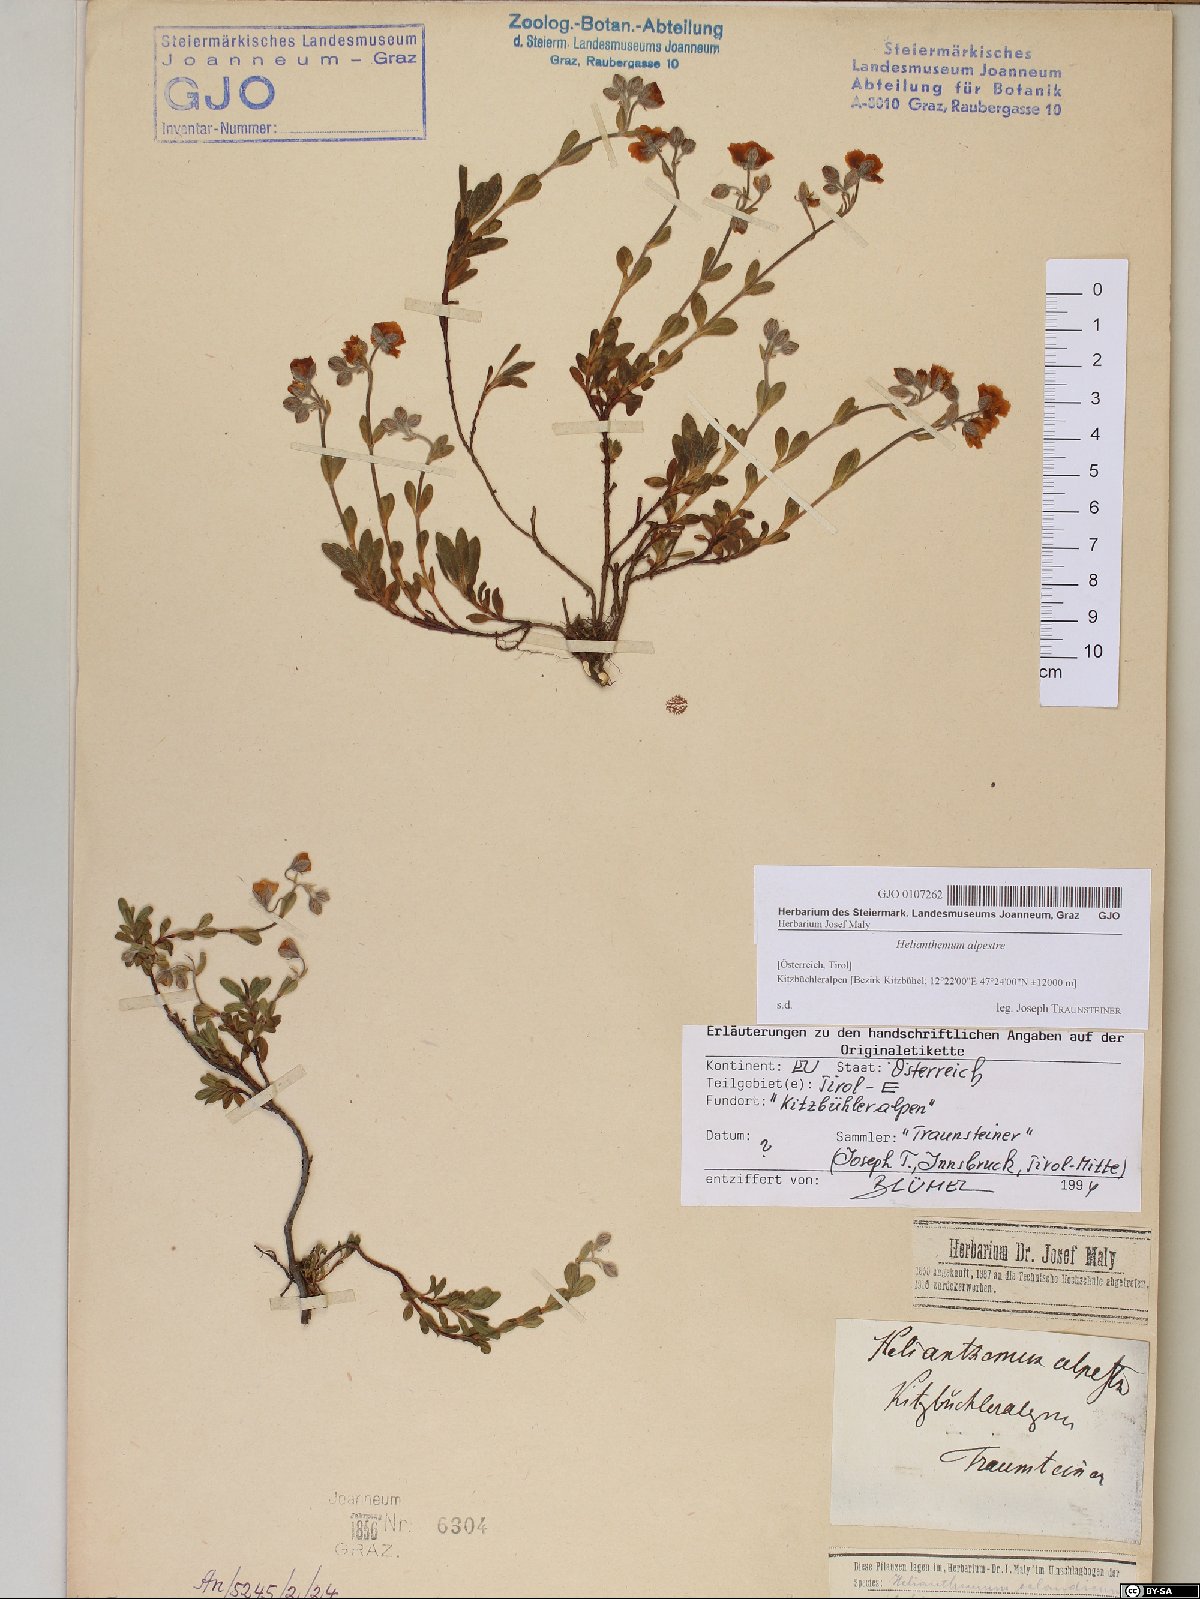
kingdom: Plantae
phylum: Tracheophyta
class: Magnoliopsida
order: Malvales
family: Cistaceae
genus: Helianthemum
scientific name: Helianthemum alpestre
